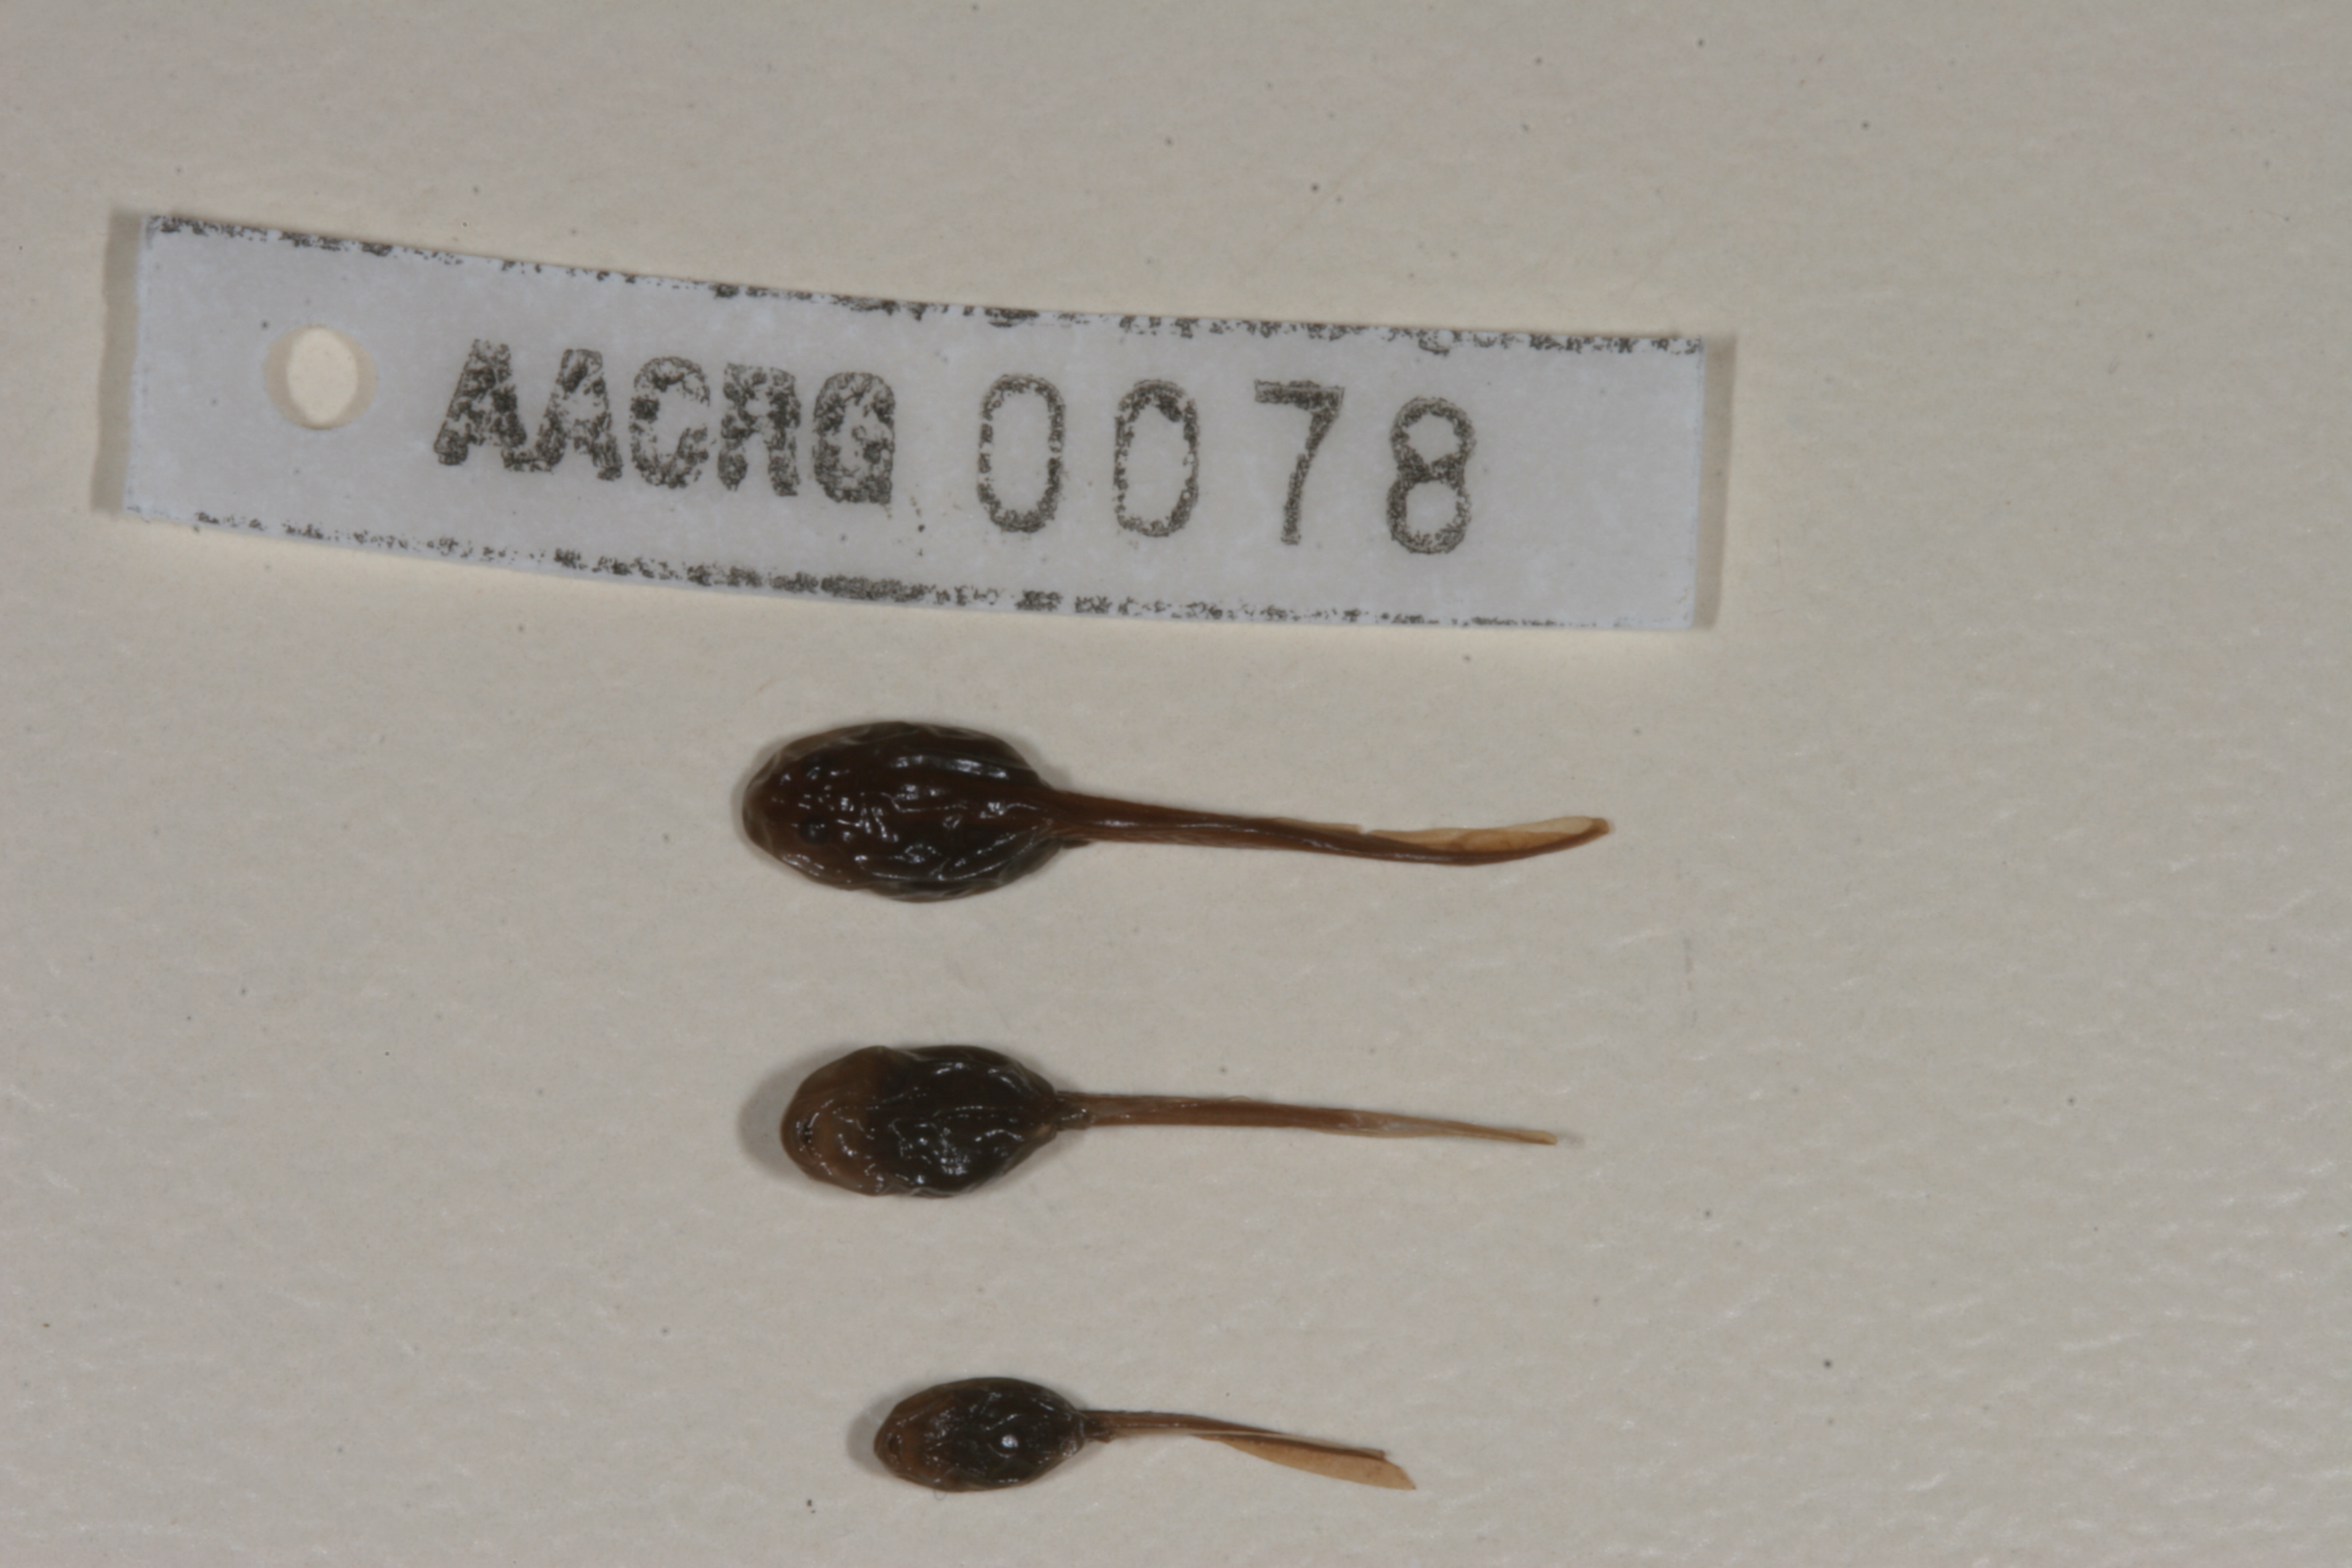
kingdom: Animalia
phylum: Chordata
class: Amphibia
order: Anura
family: Bufonidae
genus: Vandijkophrynus
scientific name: Vandijkophrynus gariepensis
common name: Gariep toad
